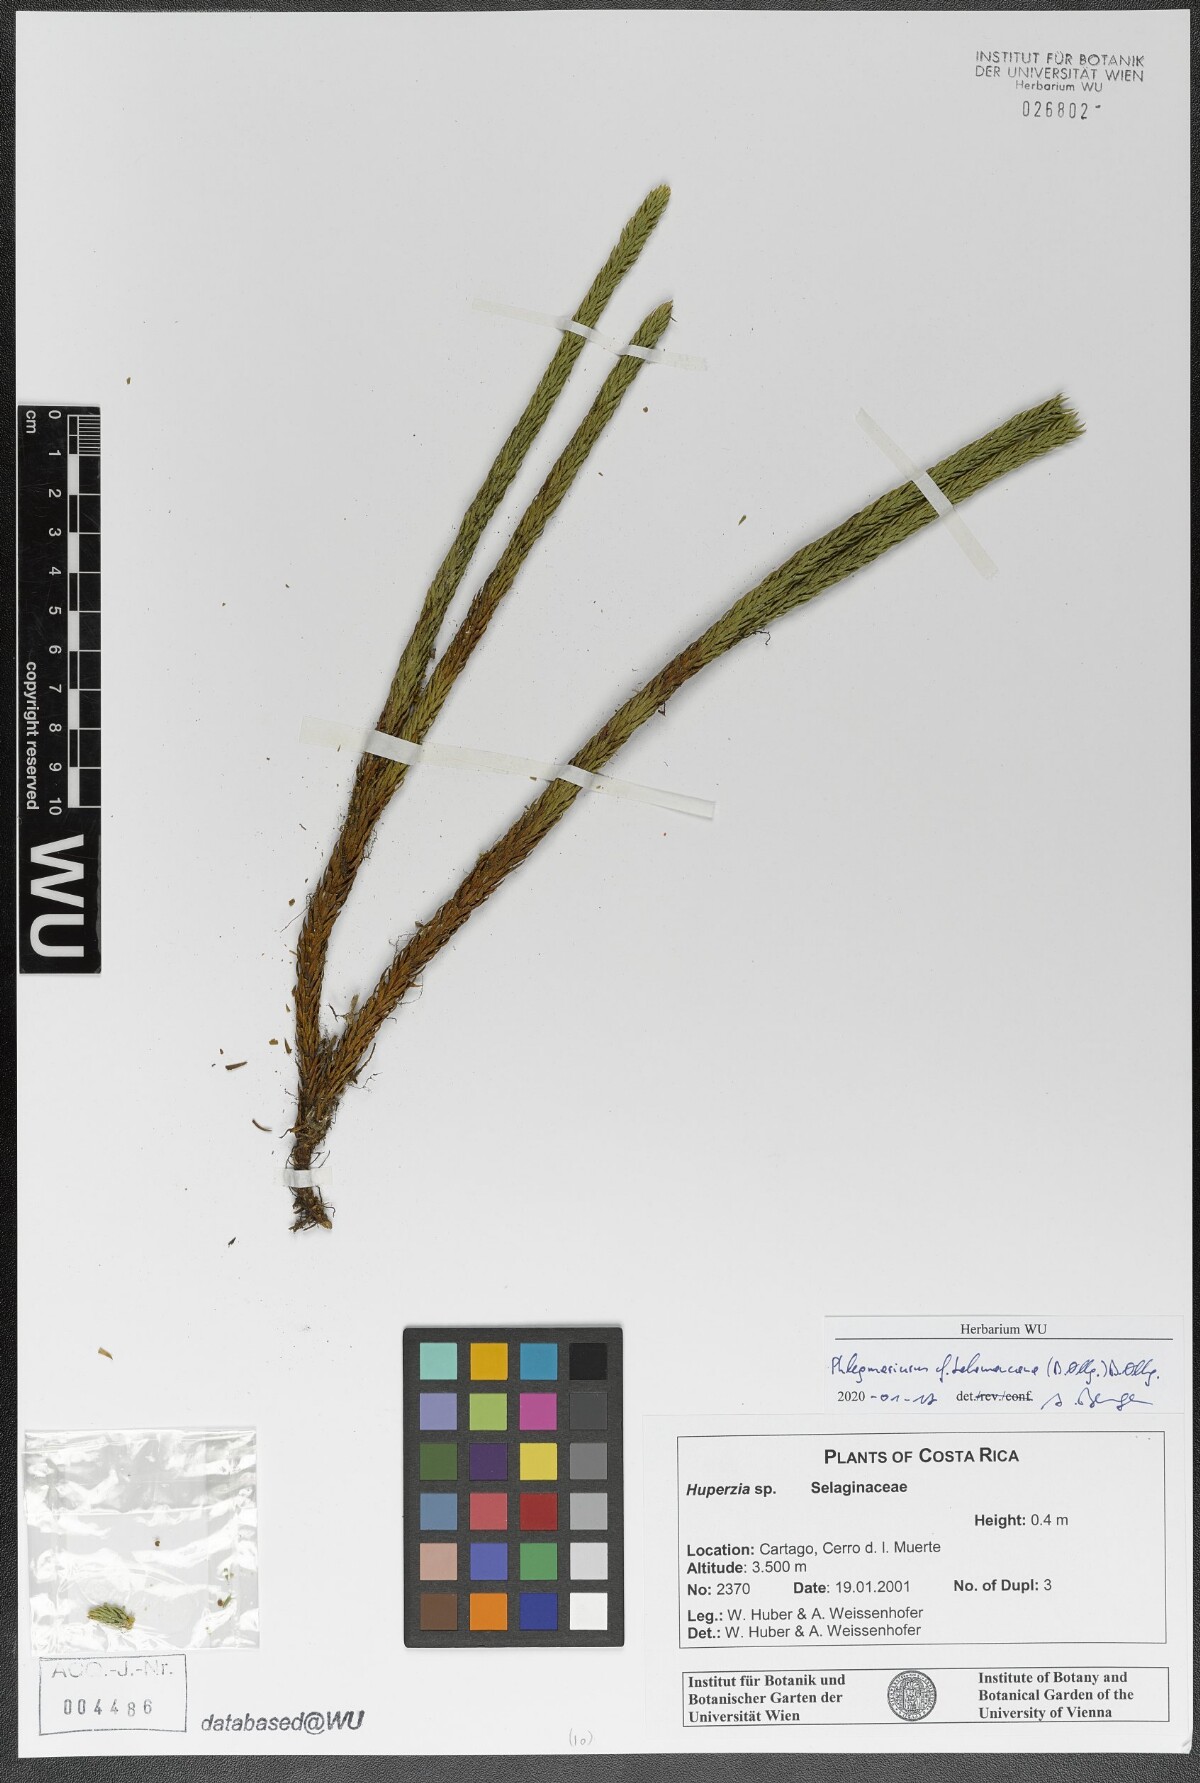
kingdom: Plantae
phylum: Tracheophyta
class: Lycopodiopsida
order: Lycopodiales
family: Lycopodiaceae
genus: Phlegmariurus
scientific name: Phlegmariurus talamancanus
